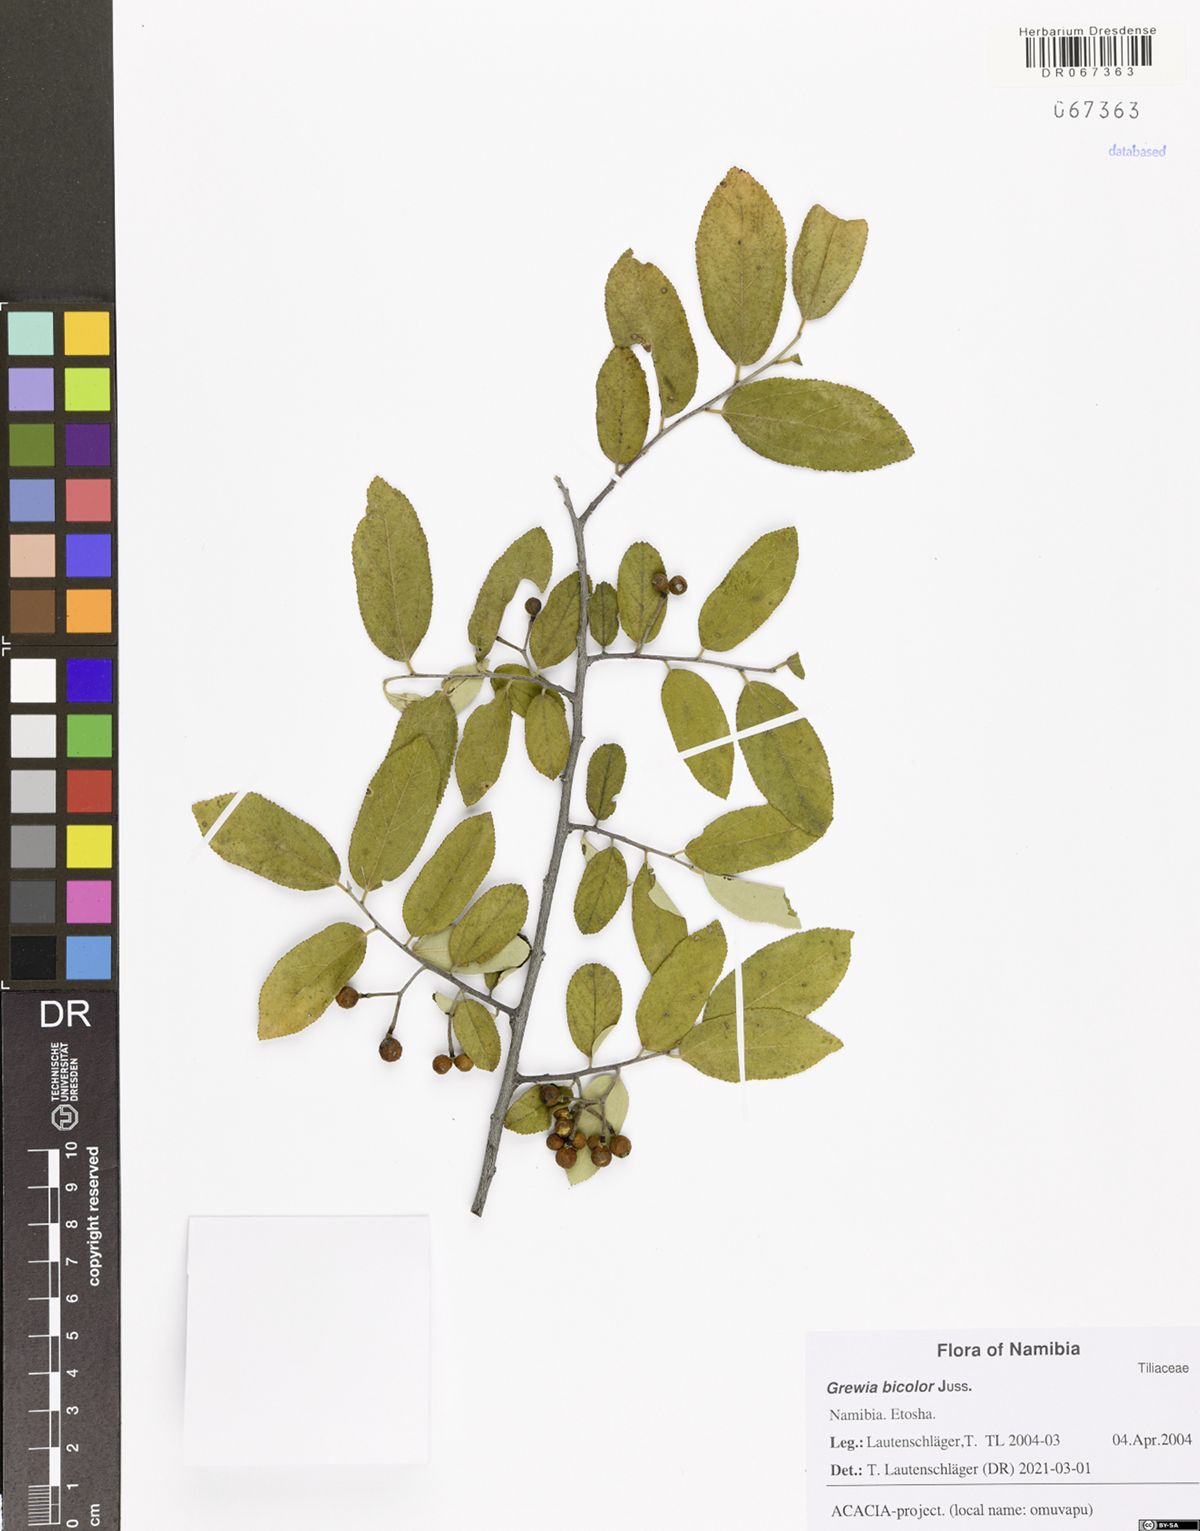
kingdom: Plantae
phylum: Tracheophyta
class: Magnoliopsida
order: Malvales
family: Malvaceae
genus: Grewia
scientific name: Grewia bicolor
